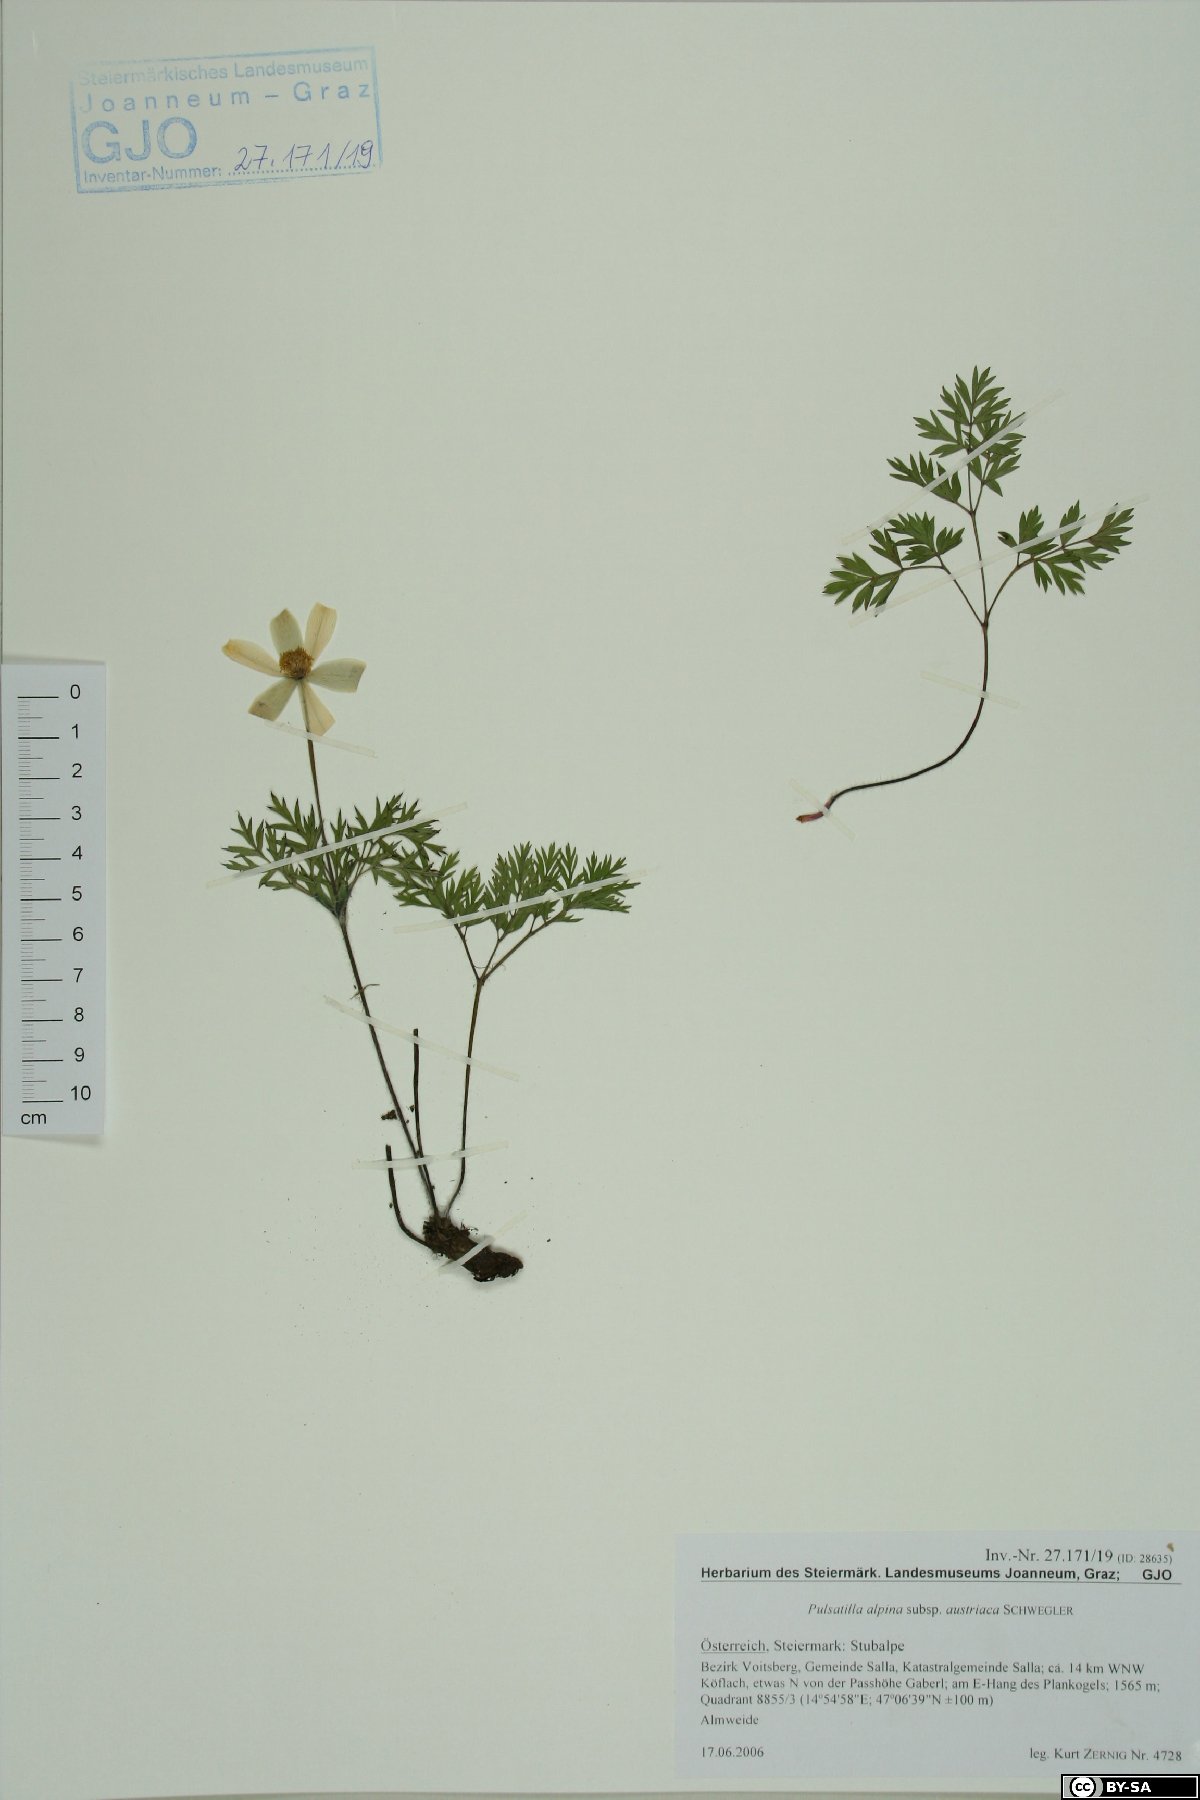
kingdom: Plantae
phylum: Tracheophyta
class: Magnoliopsida
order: Ranunculales
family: Ranunculaceae
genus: Pulsatilla
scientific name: Pulsatilla alpina
